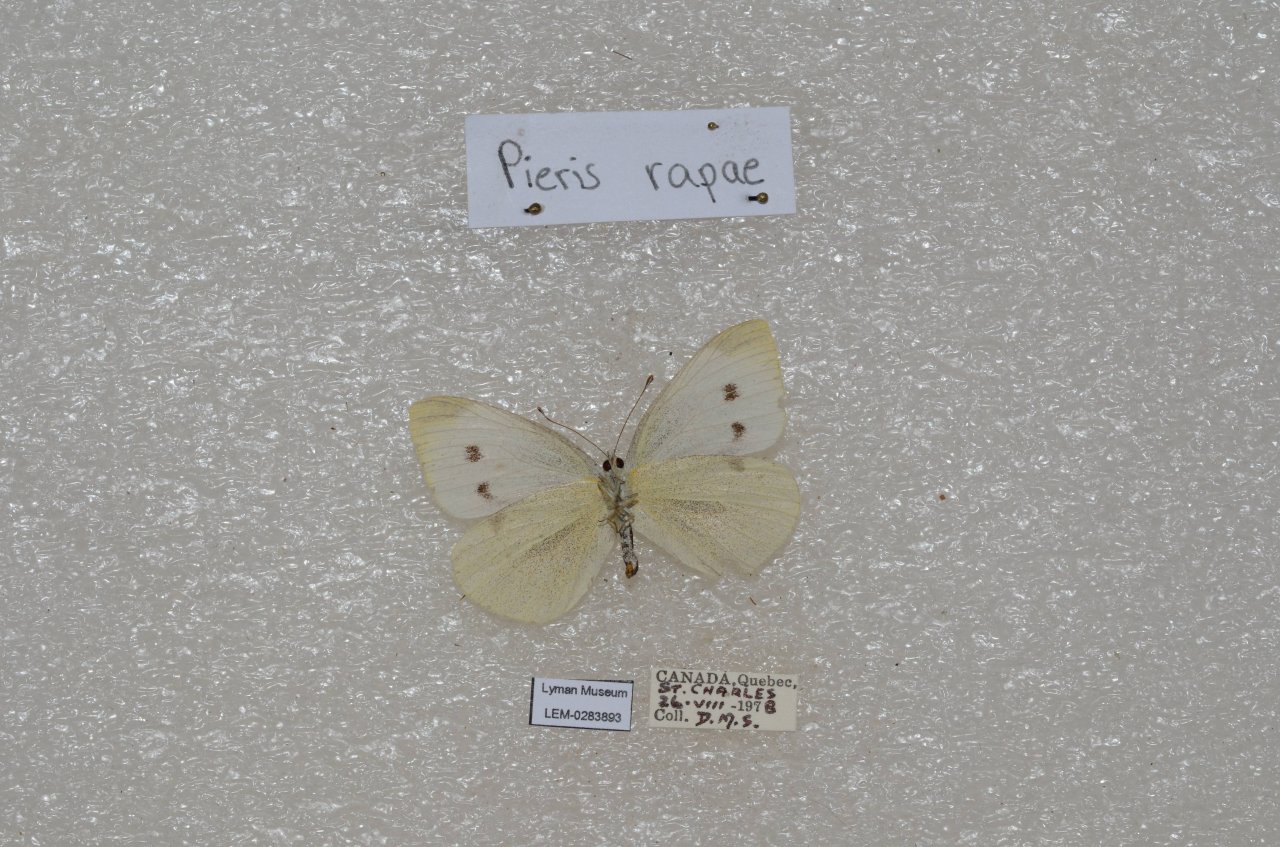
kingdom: Animalia
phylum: Arthropoda
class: Insecta
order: Lepidoptera
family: Pieridae
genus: Pieris
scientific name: Pieris rapae
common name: Cabbage White
